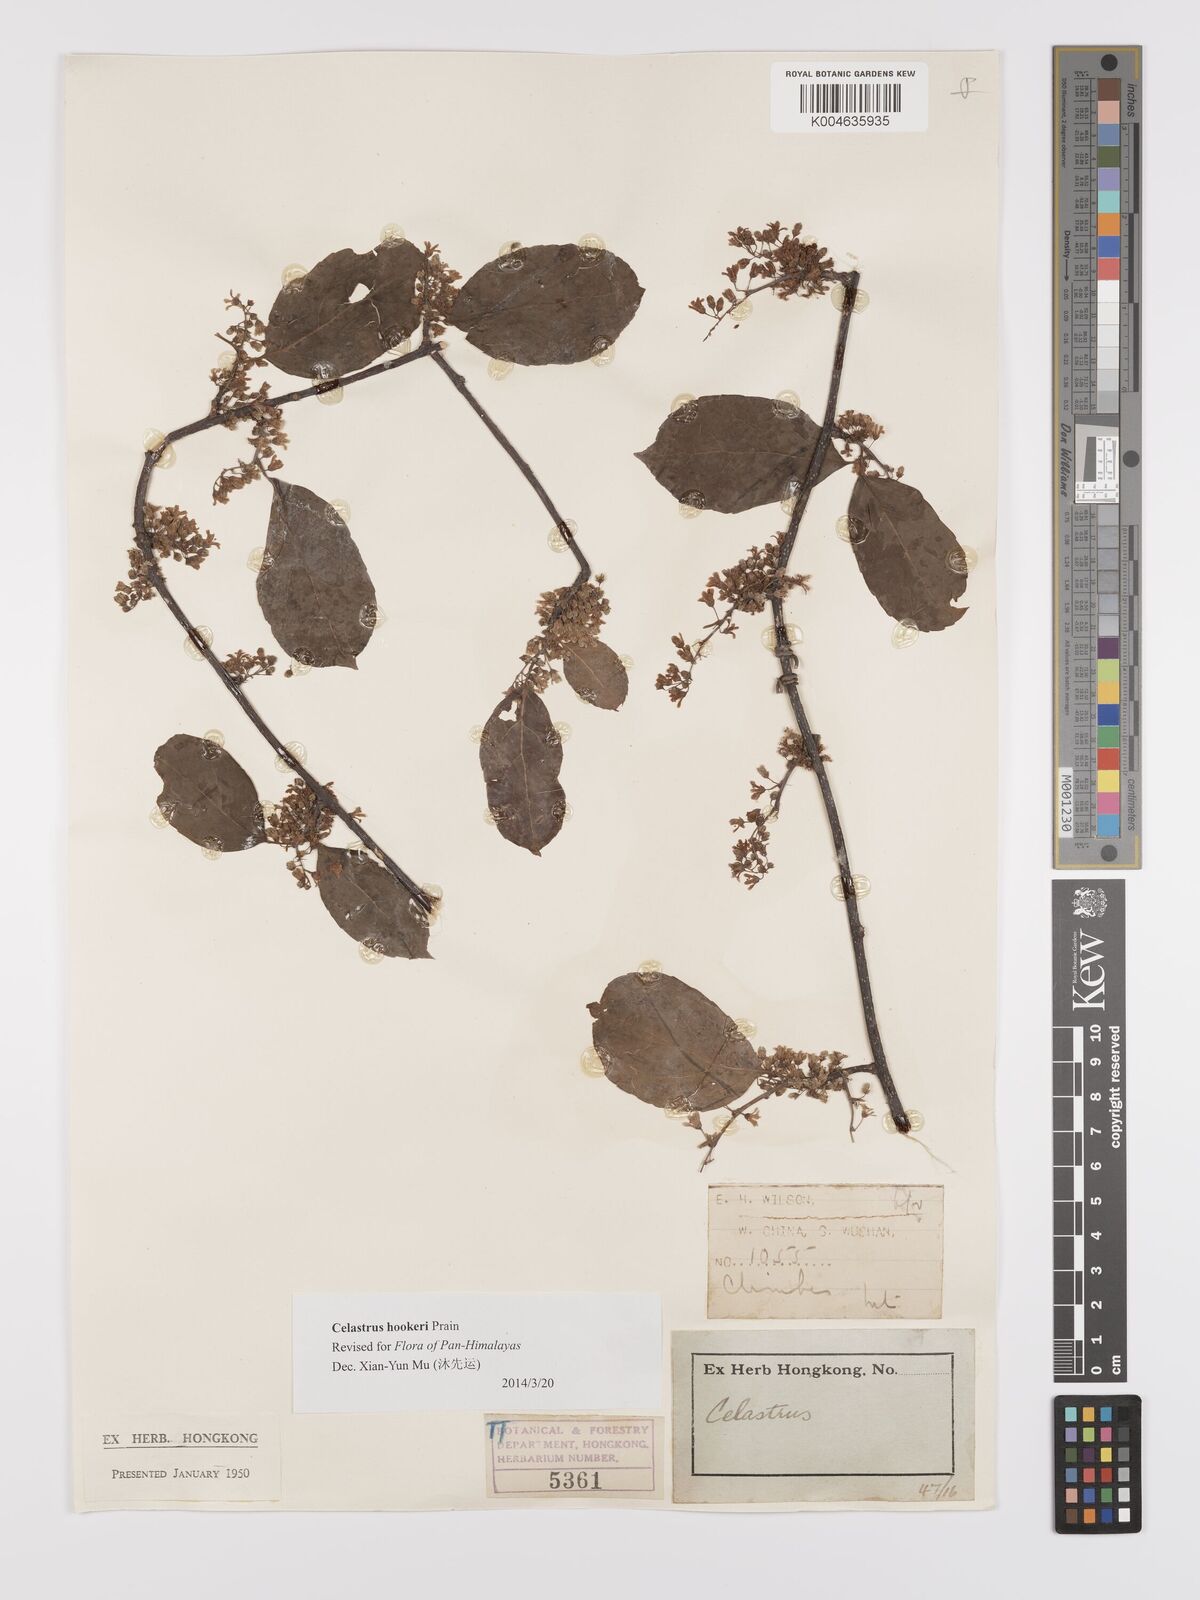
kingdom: Plantae
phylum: Tracheophyta
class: Magnoliopsida
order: Celastrales
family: Celastraceae
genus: Celastrus
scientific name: Celastrus hindsii
